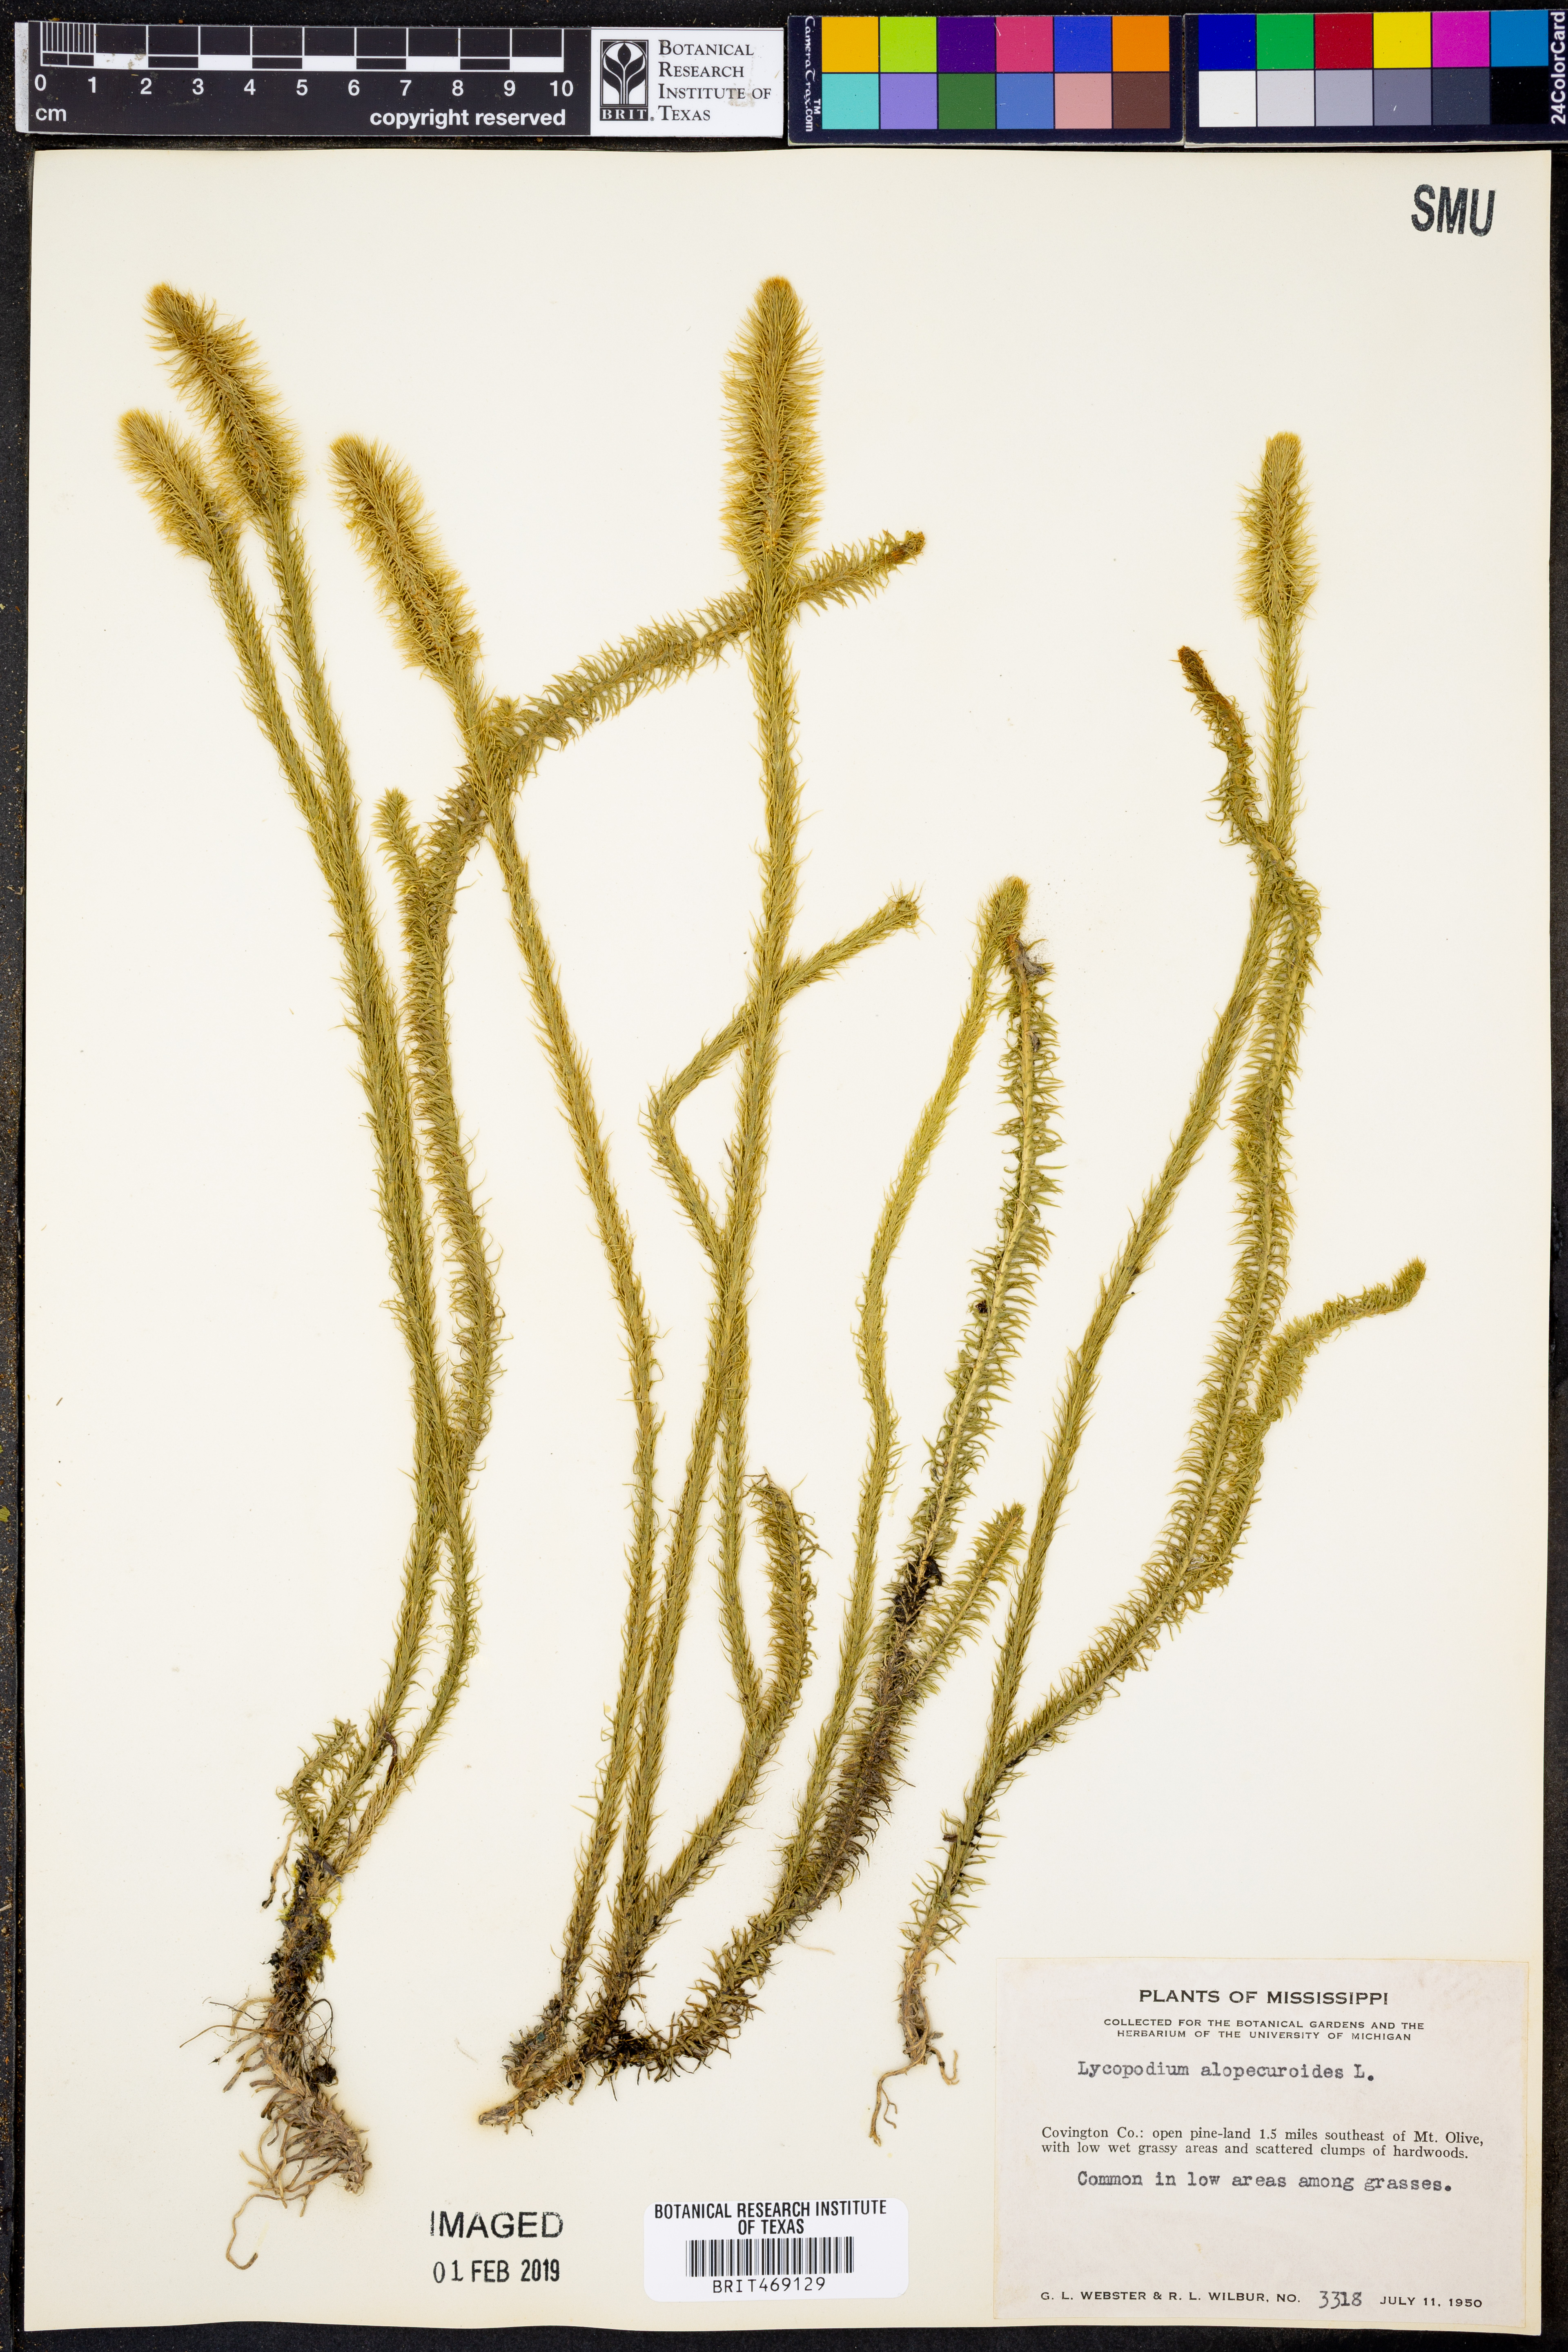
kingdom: Plantae
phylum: Tracheophyta
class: Lycopodiopsida
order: Lycopodiales
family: Lycopodiaceae
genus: Lycopodiella
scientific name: Lycopodiella alopecuroides
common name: Foxtail clubmoss
